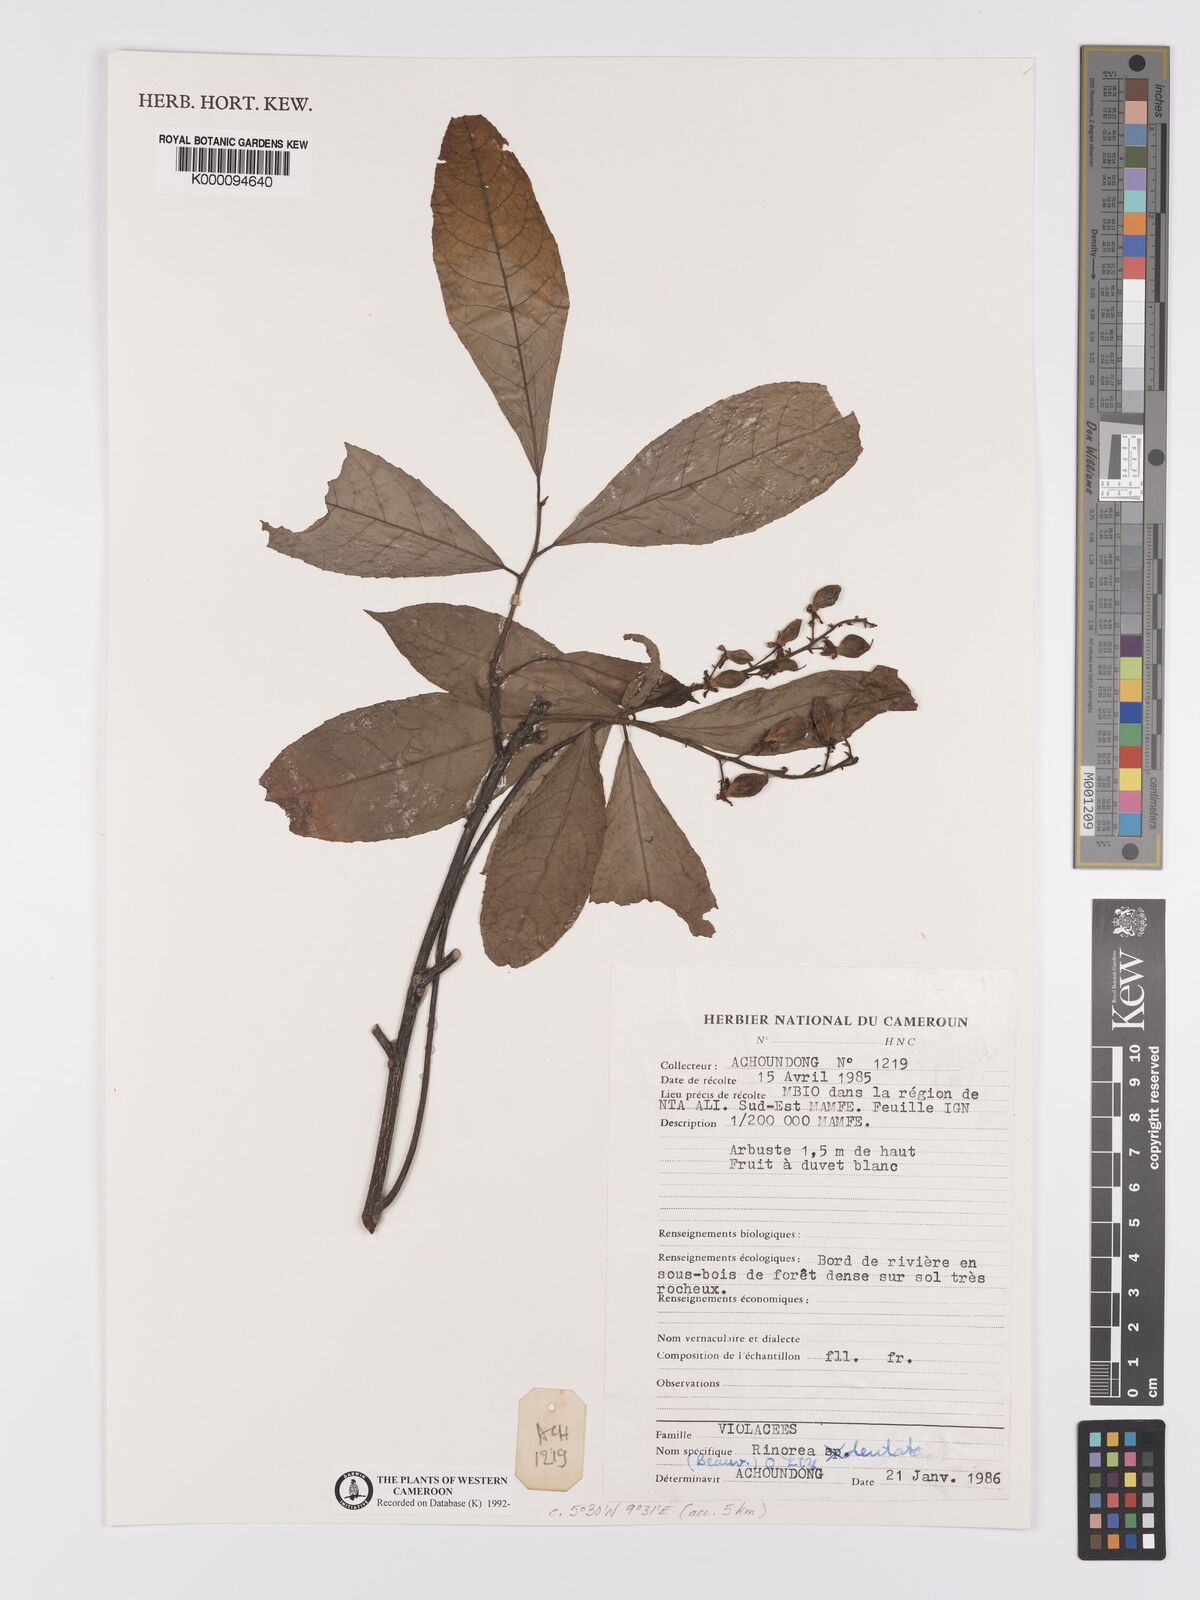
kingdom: Plantae
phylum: Tracheophyta
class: Magnoliopsida
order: Malpighiales
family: Violaceae
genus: Rinorea
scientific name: Rinorea dentata
